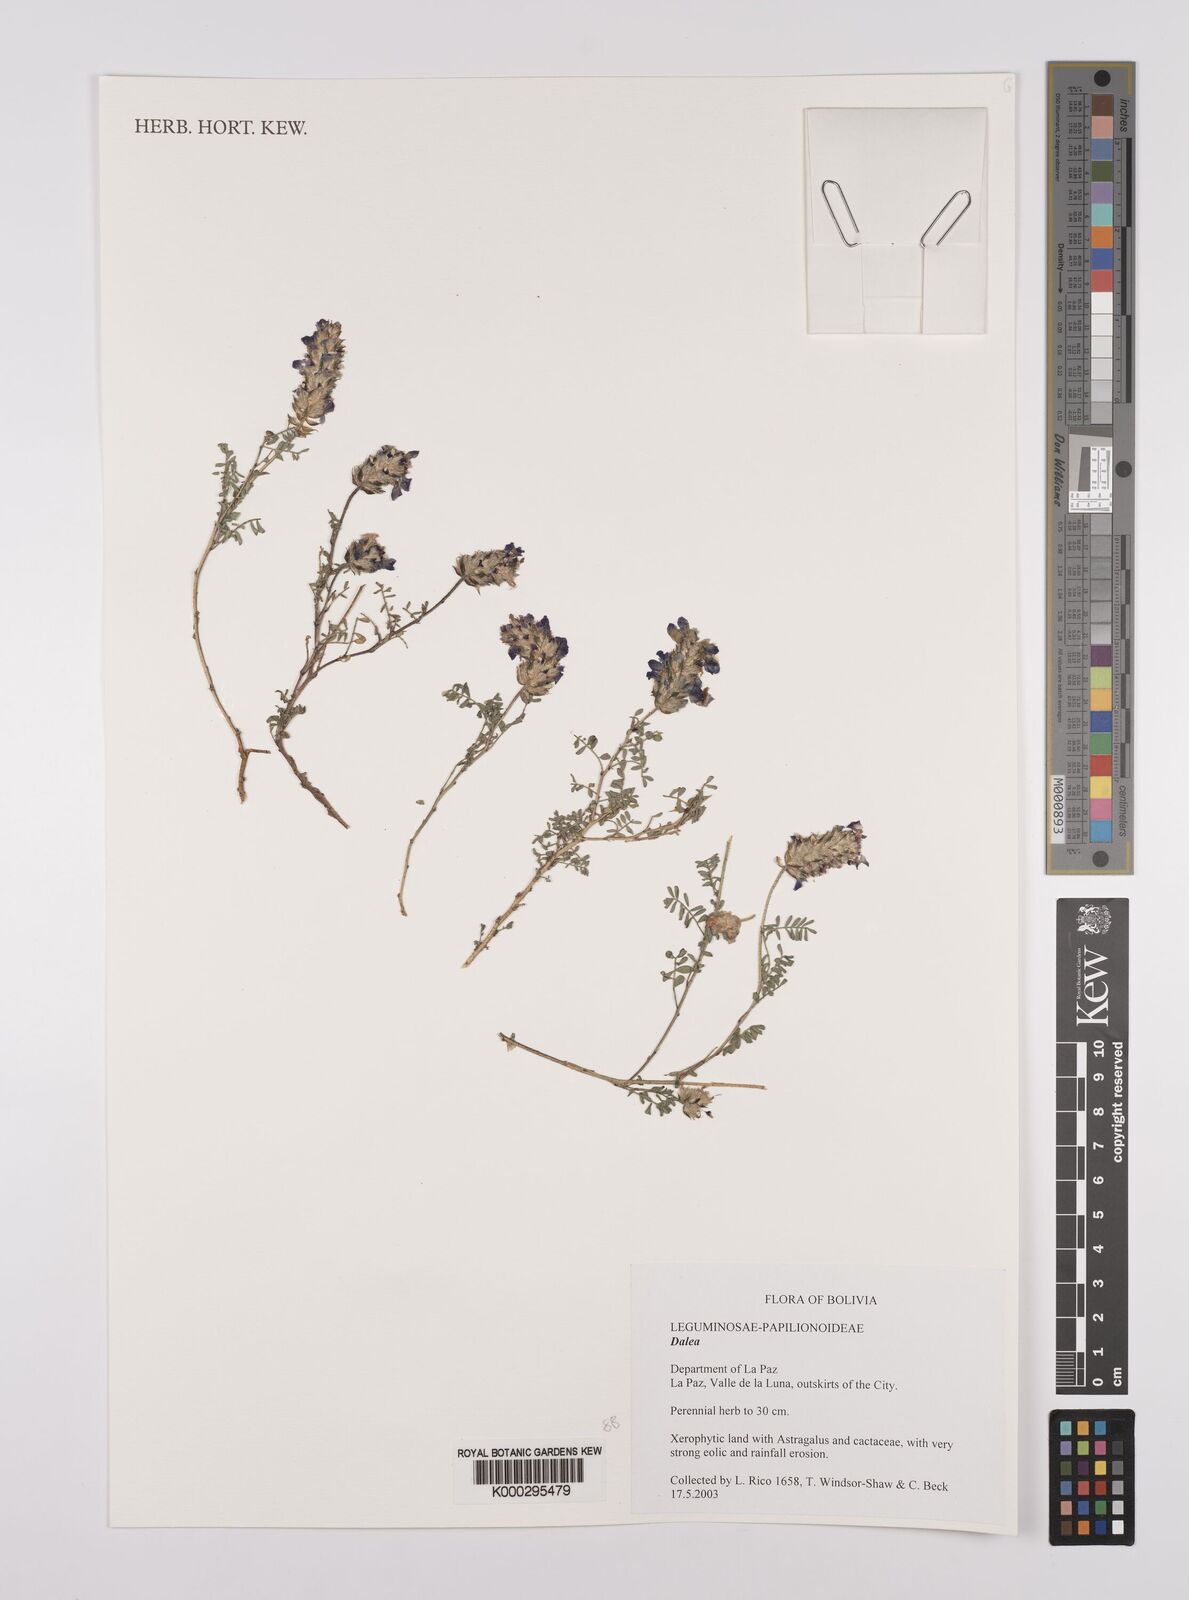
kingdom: Plantae
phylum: Tracheophyta
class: Magnoliopsida
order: Fabales
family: Fabaceae
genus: Dalea
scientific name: Dalea
